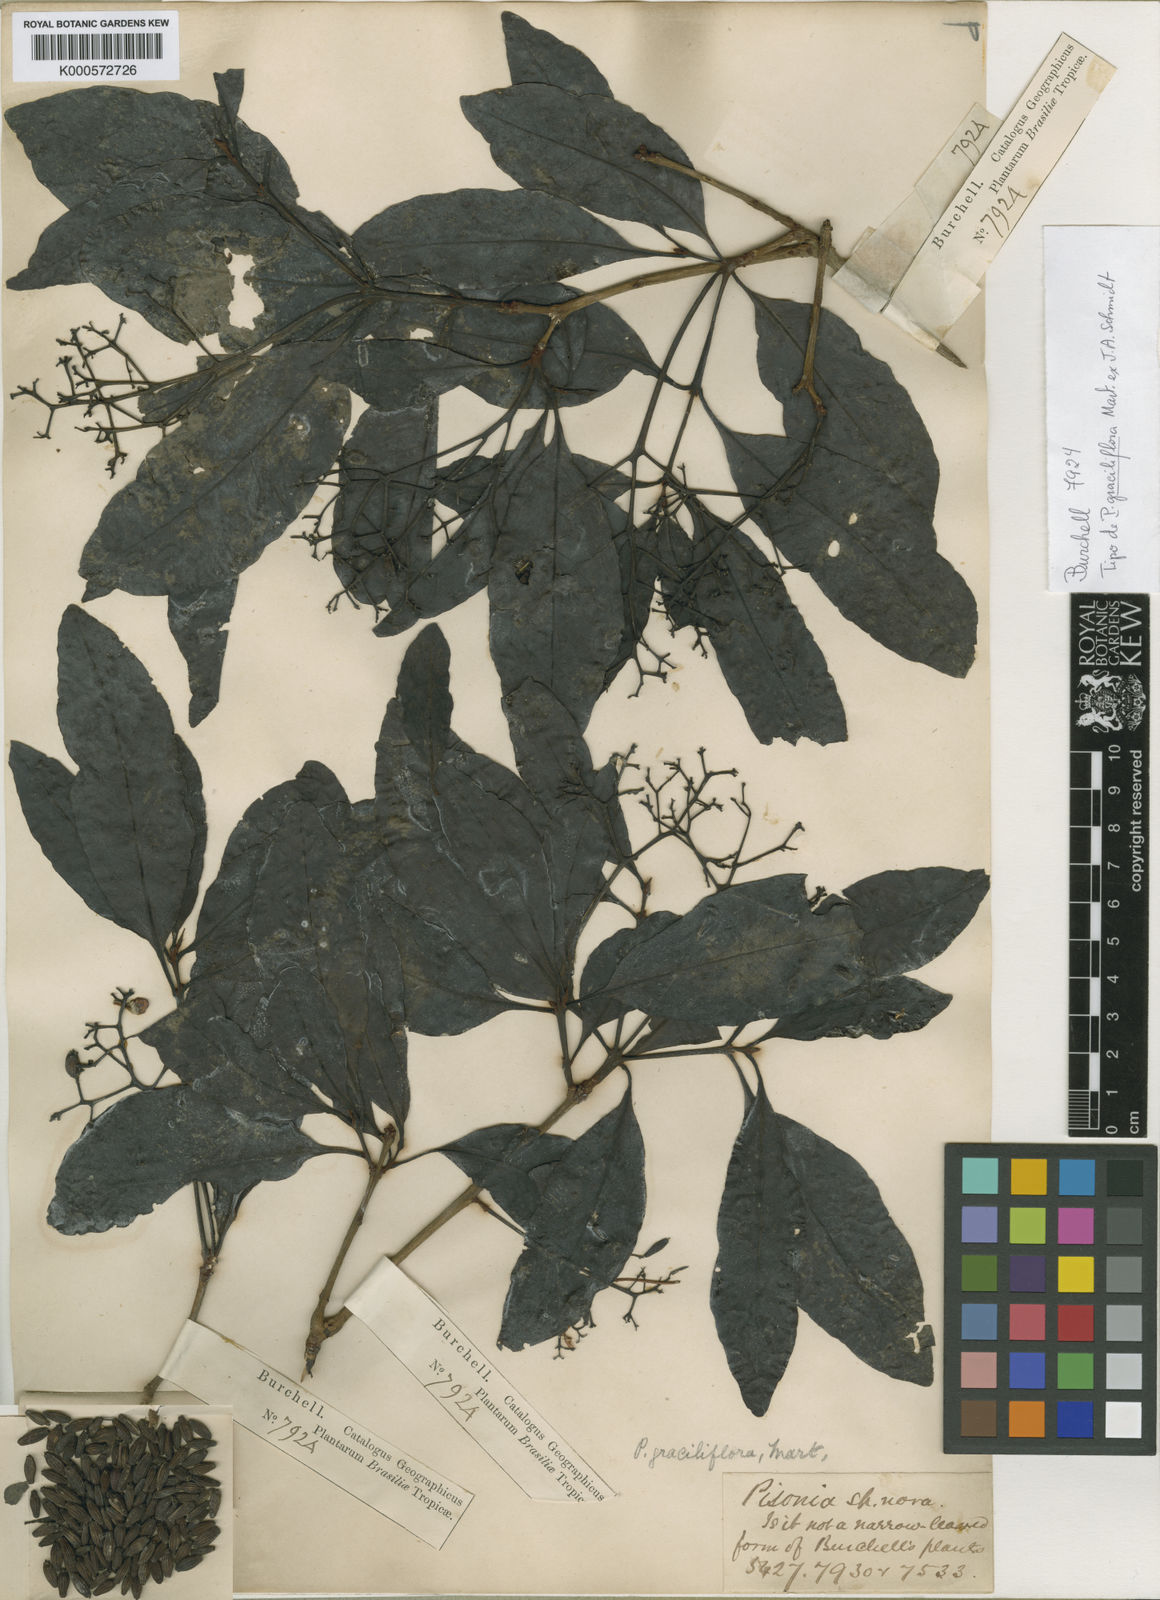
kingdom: Plantae
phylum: Tracheophyta
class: Magnoliopsida
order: Caryophyllales
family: Nyctaginaceae
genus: Guapira
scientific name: Guapira graciliflora
